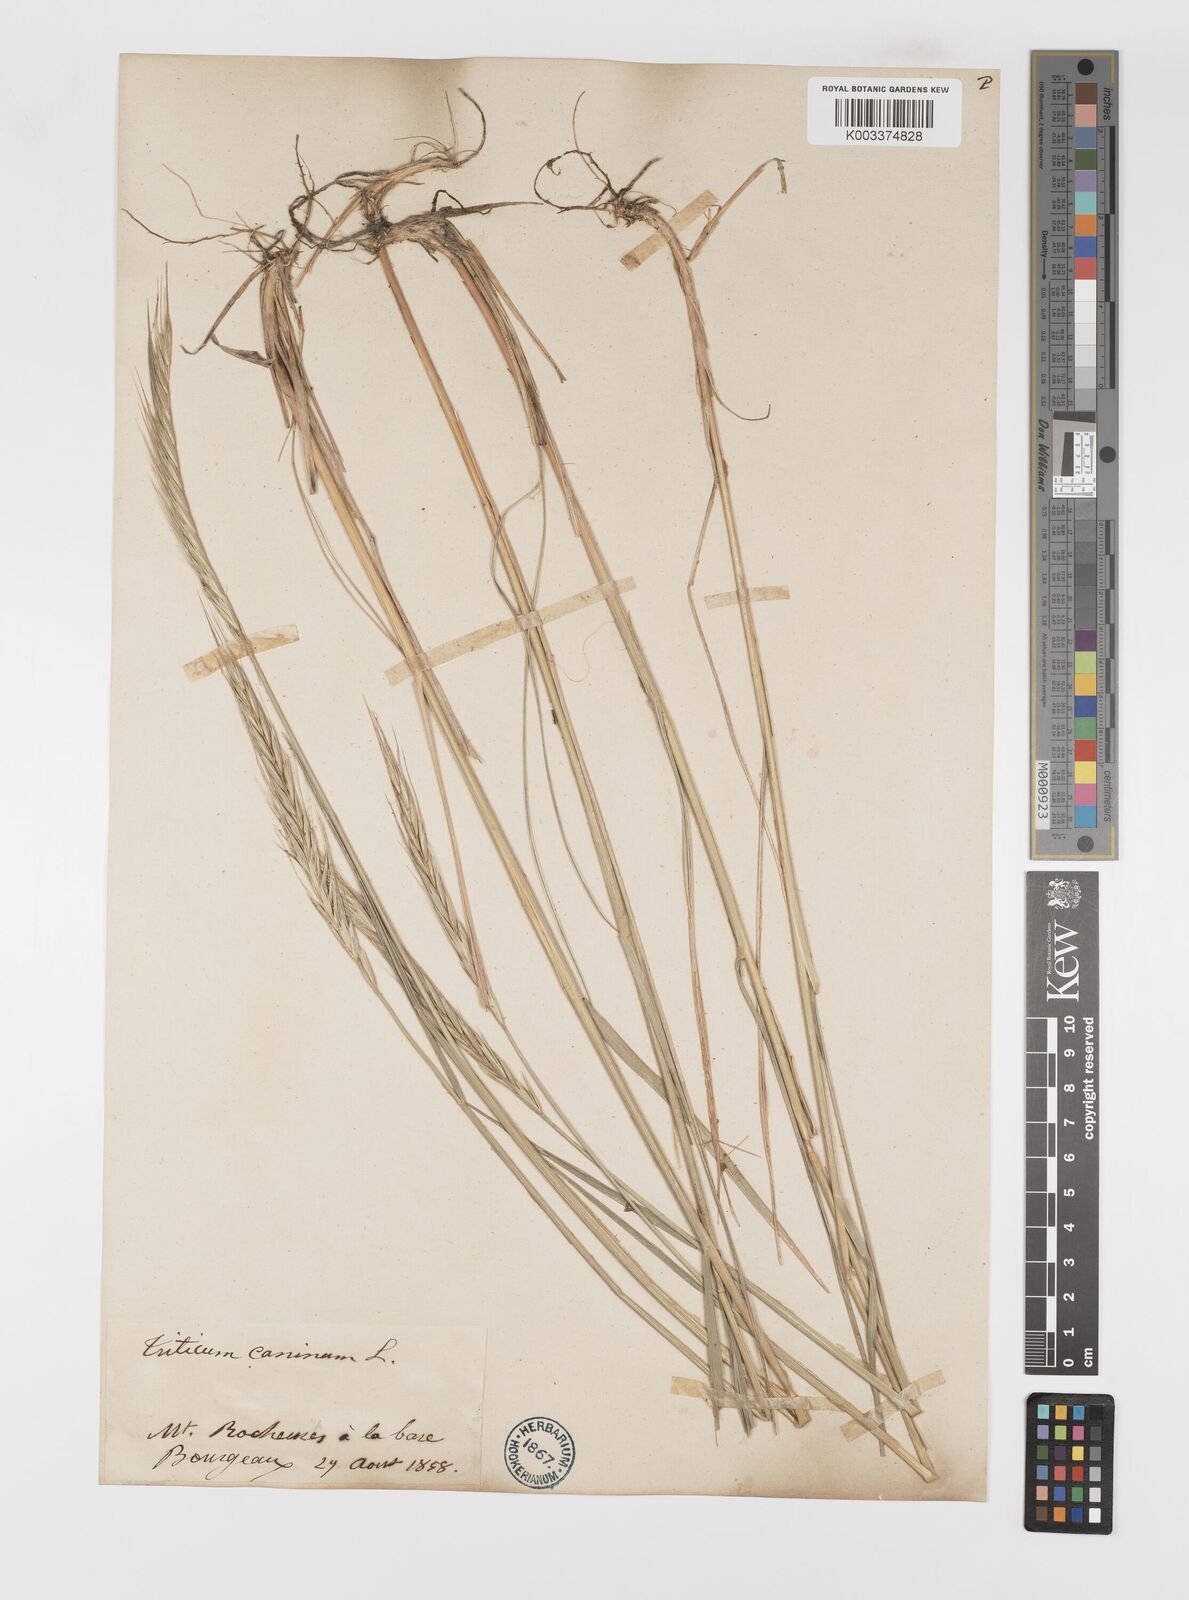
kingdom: Plantae
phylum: Tracheophyta
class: Liliopsida
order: Poales
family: Poaceae
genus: Elymus
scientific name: Elymus violaceus
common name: Arctic wheatgrass
